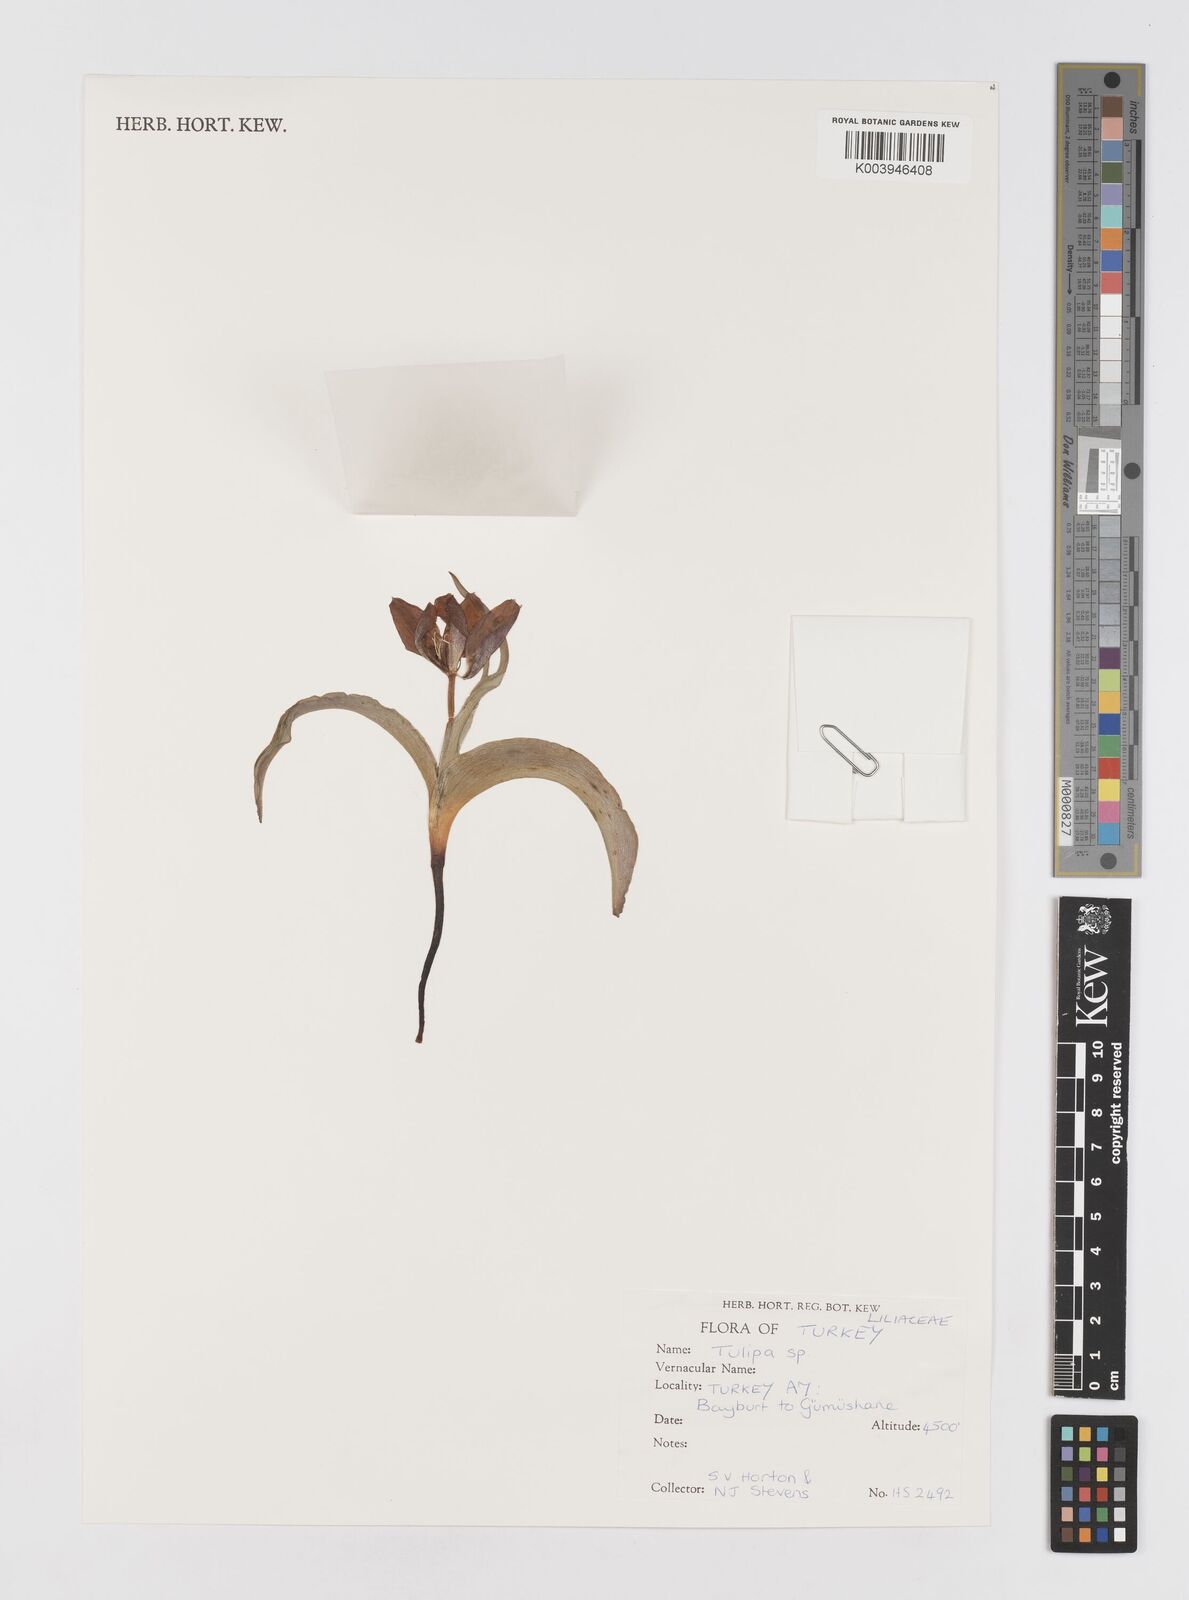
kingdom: Plantae
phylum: Tracheophyta
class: Liliopsida
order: Liliales
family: Liliaceae
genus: Tulipa
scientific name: Tulipa
